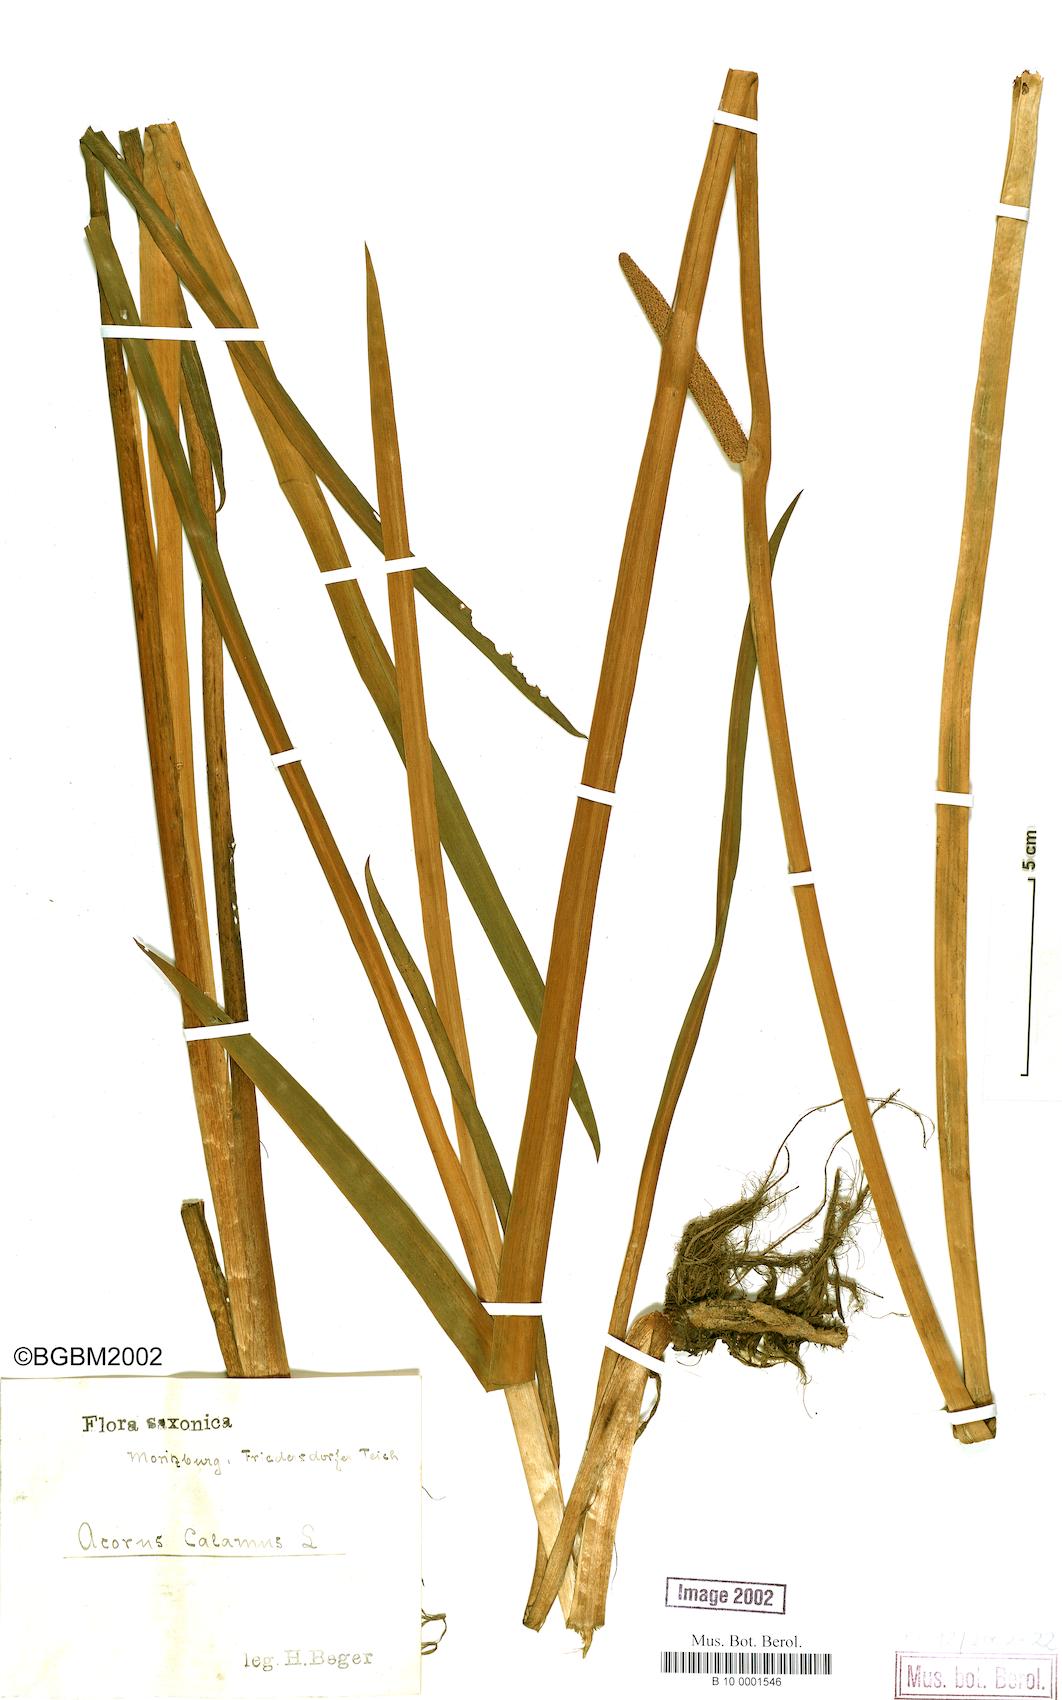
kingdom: Plantae
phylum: Tracheophyta
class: Liliopsida
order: Acorales
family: Acoraceae
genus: Acorus
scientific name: Acorus calamus
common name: Sweet-flag
